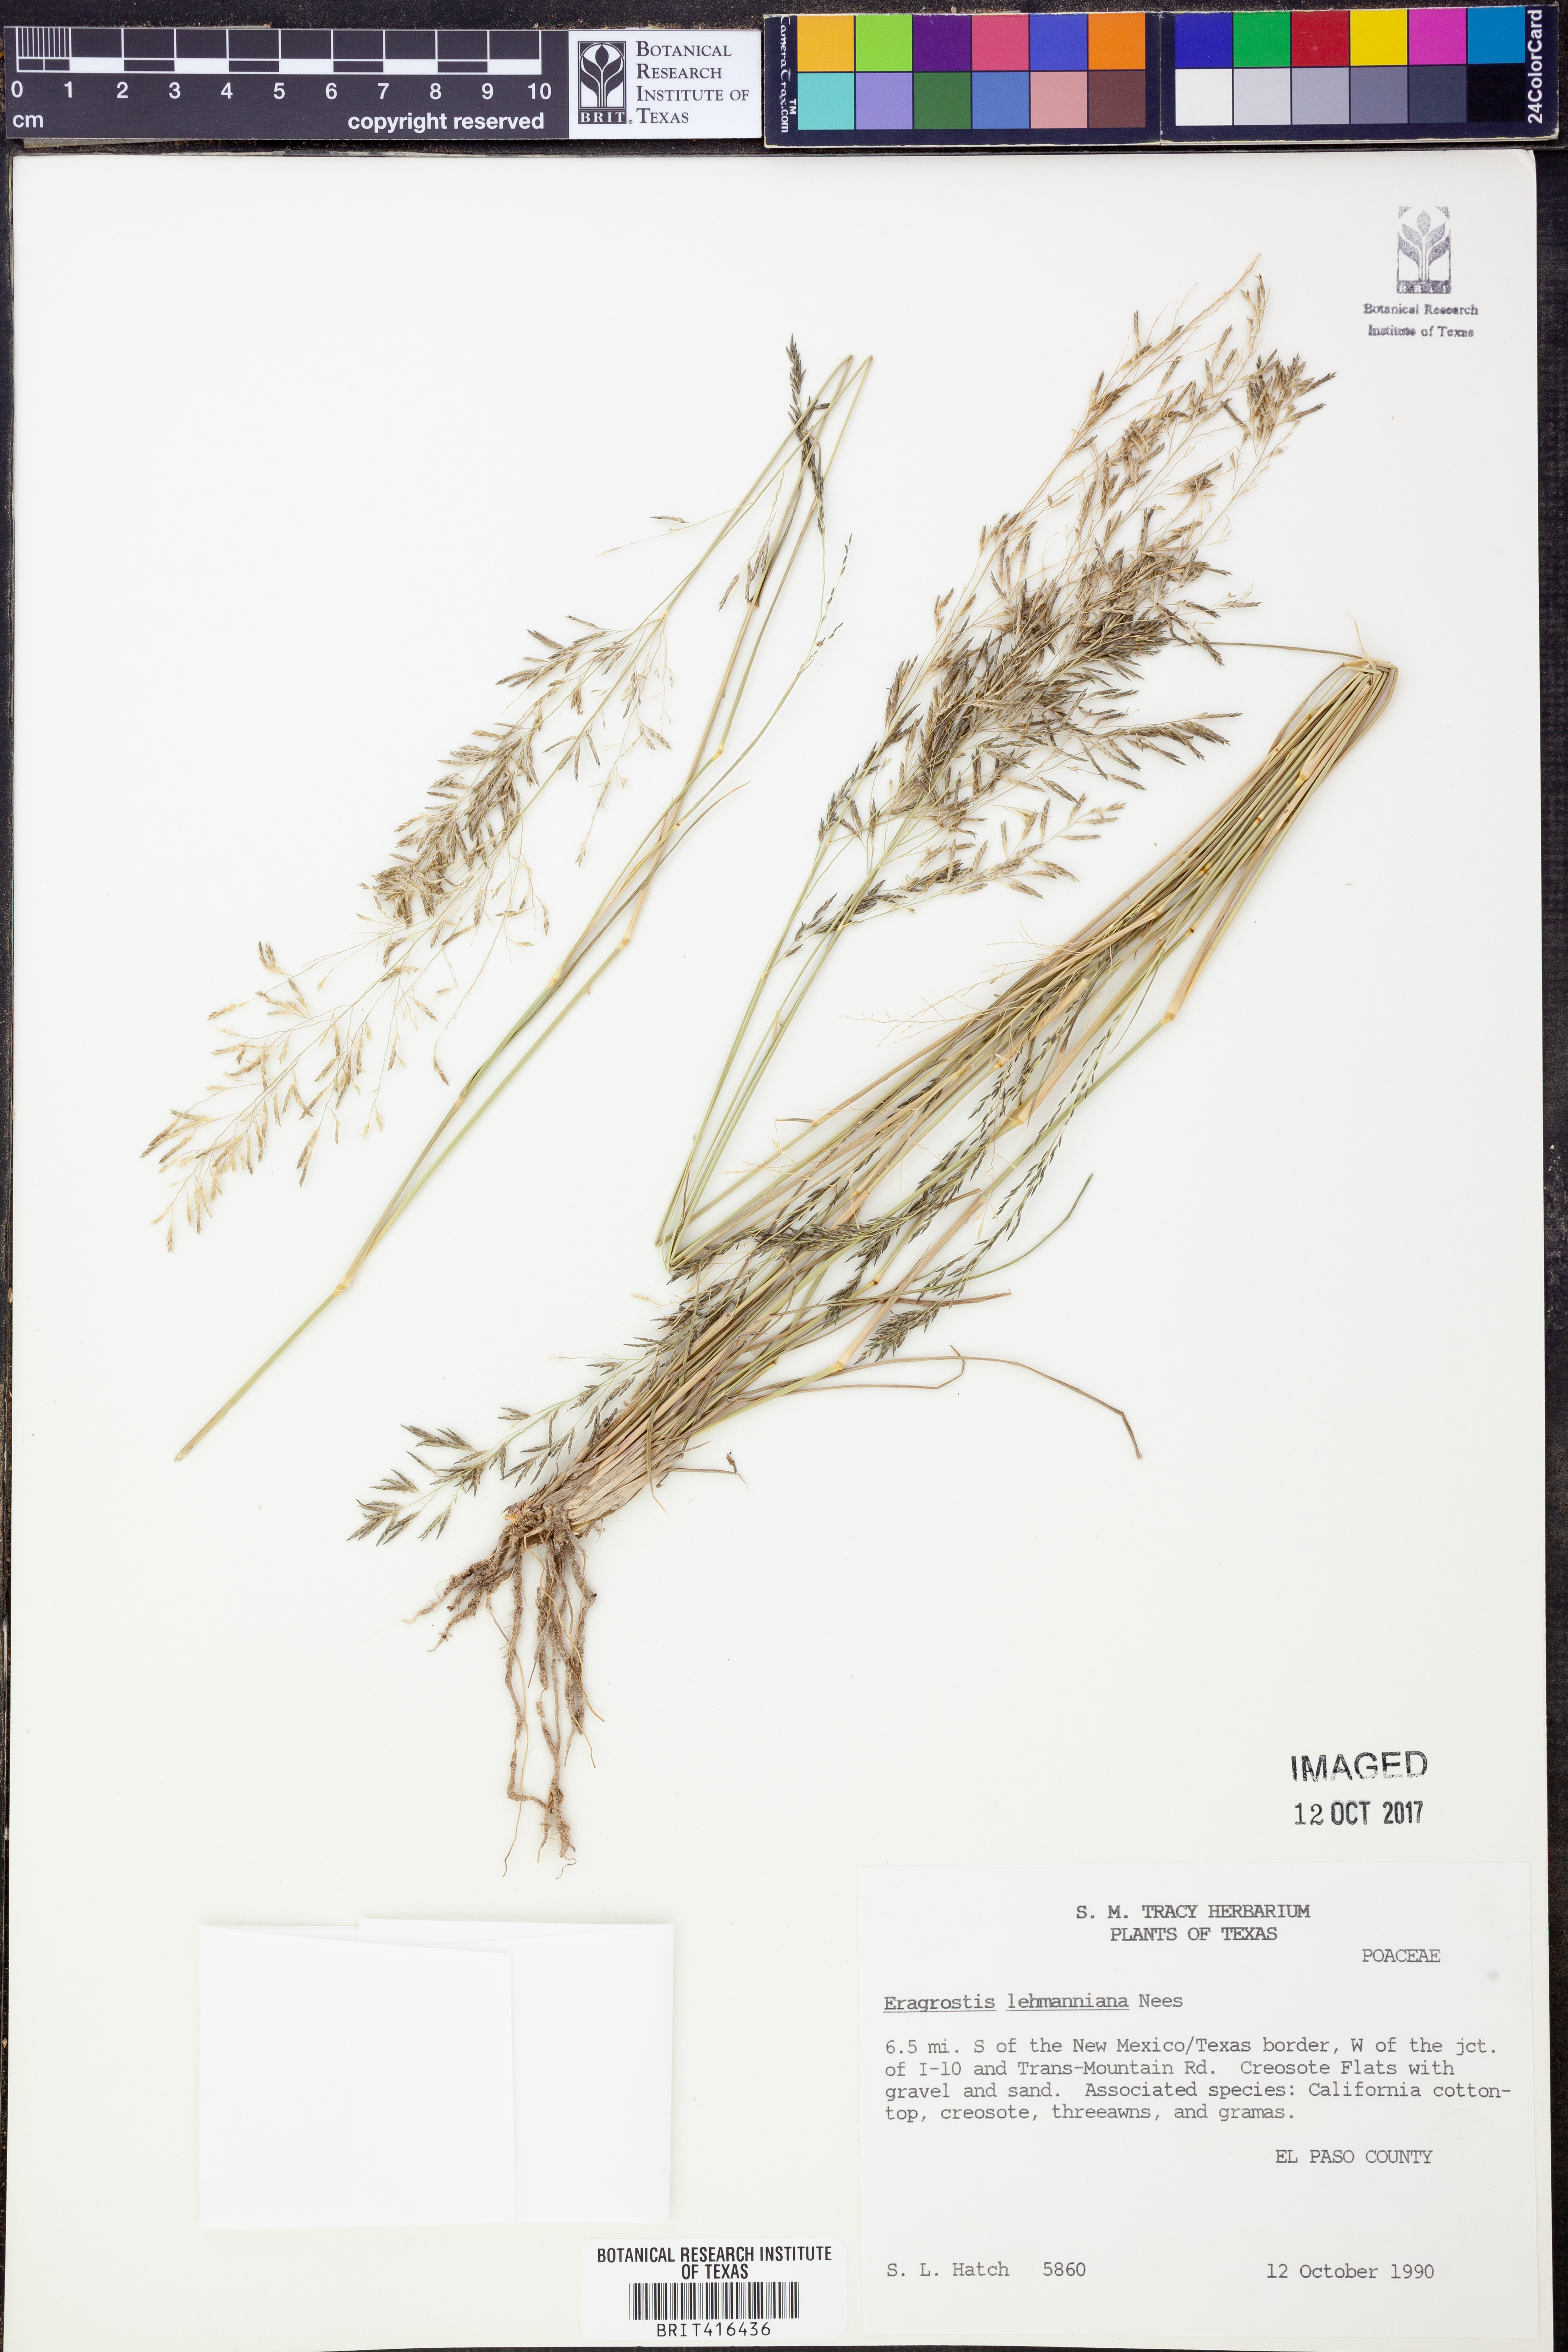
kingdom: Plantae
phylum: Tracheophyta
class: Liliopsida
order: Poales
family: Poaceae
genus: Eragrostis
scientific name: Eragrostis lehmanniana
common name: Lehmann lovegrass
